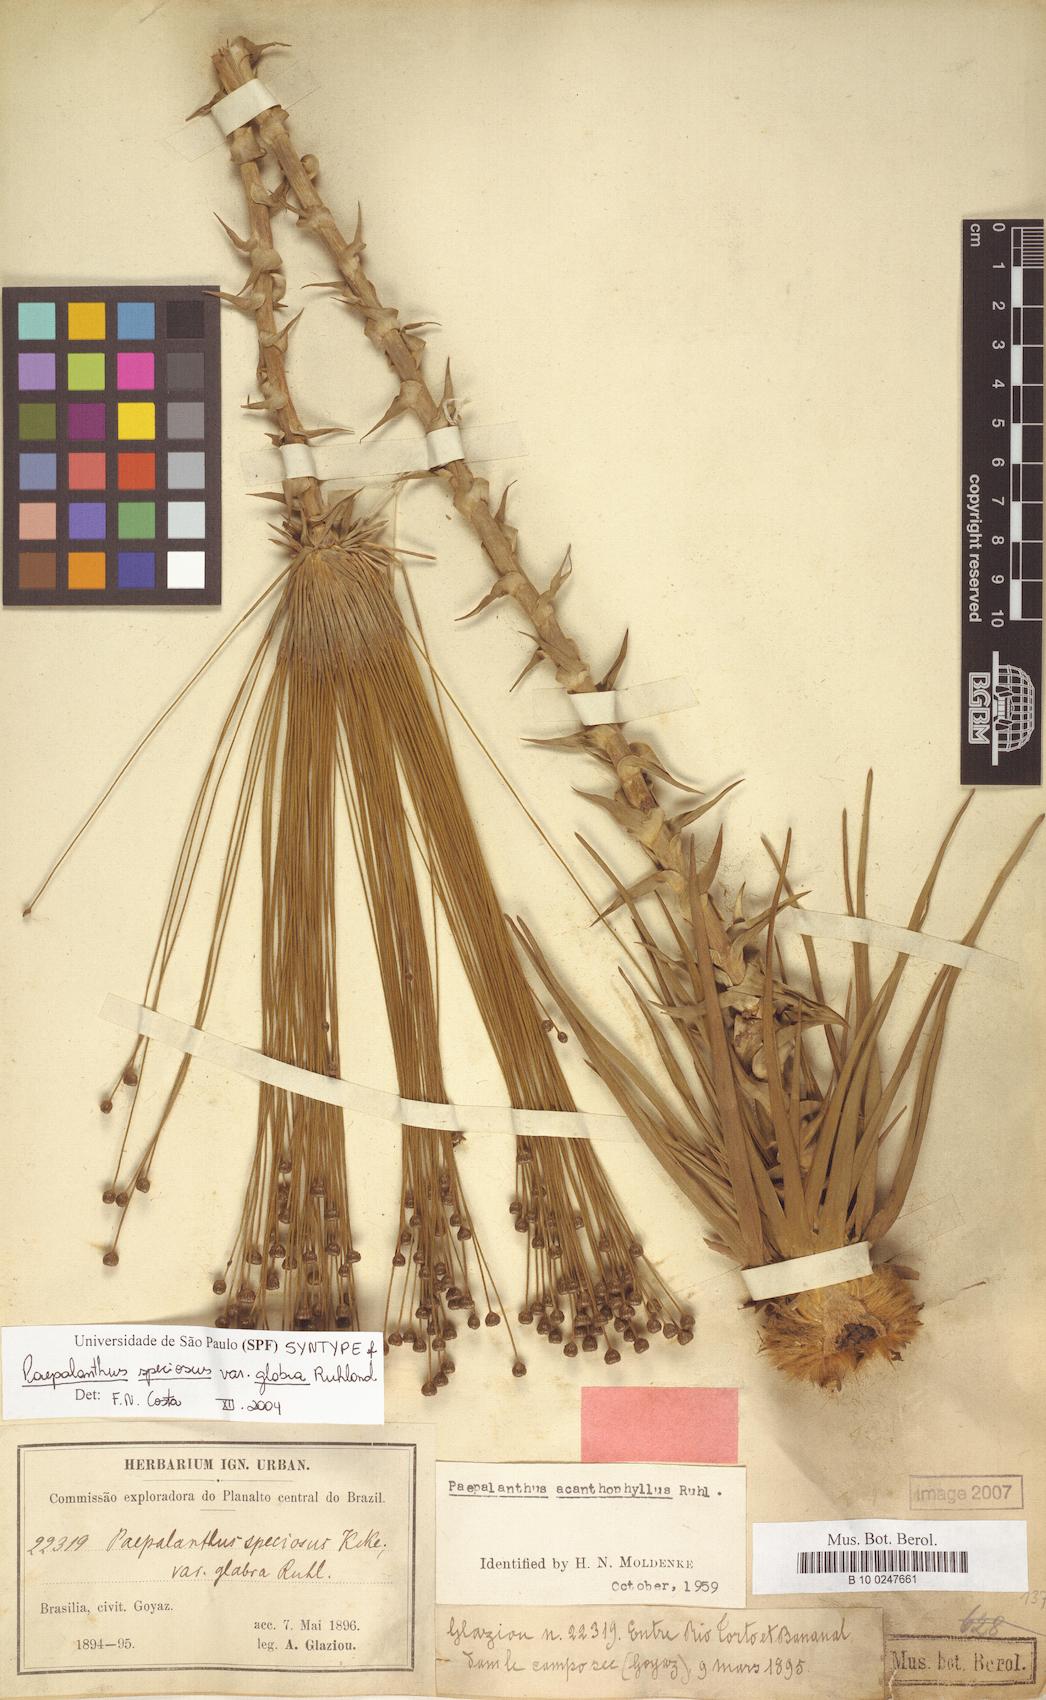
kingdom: Plantae
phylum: Tracheophyta
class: Liliopsida
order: Poales
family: Eriocaulaceae
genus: Paepalanthus
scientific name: Paepalanthus chiquitensis
